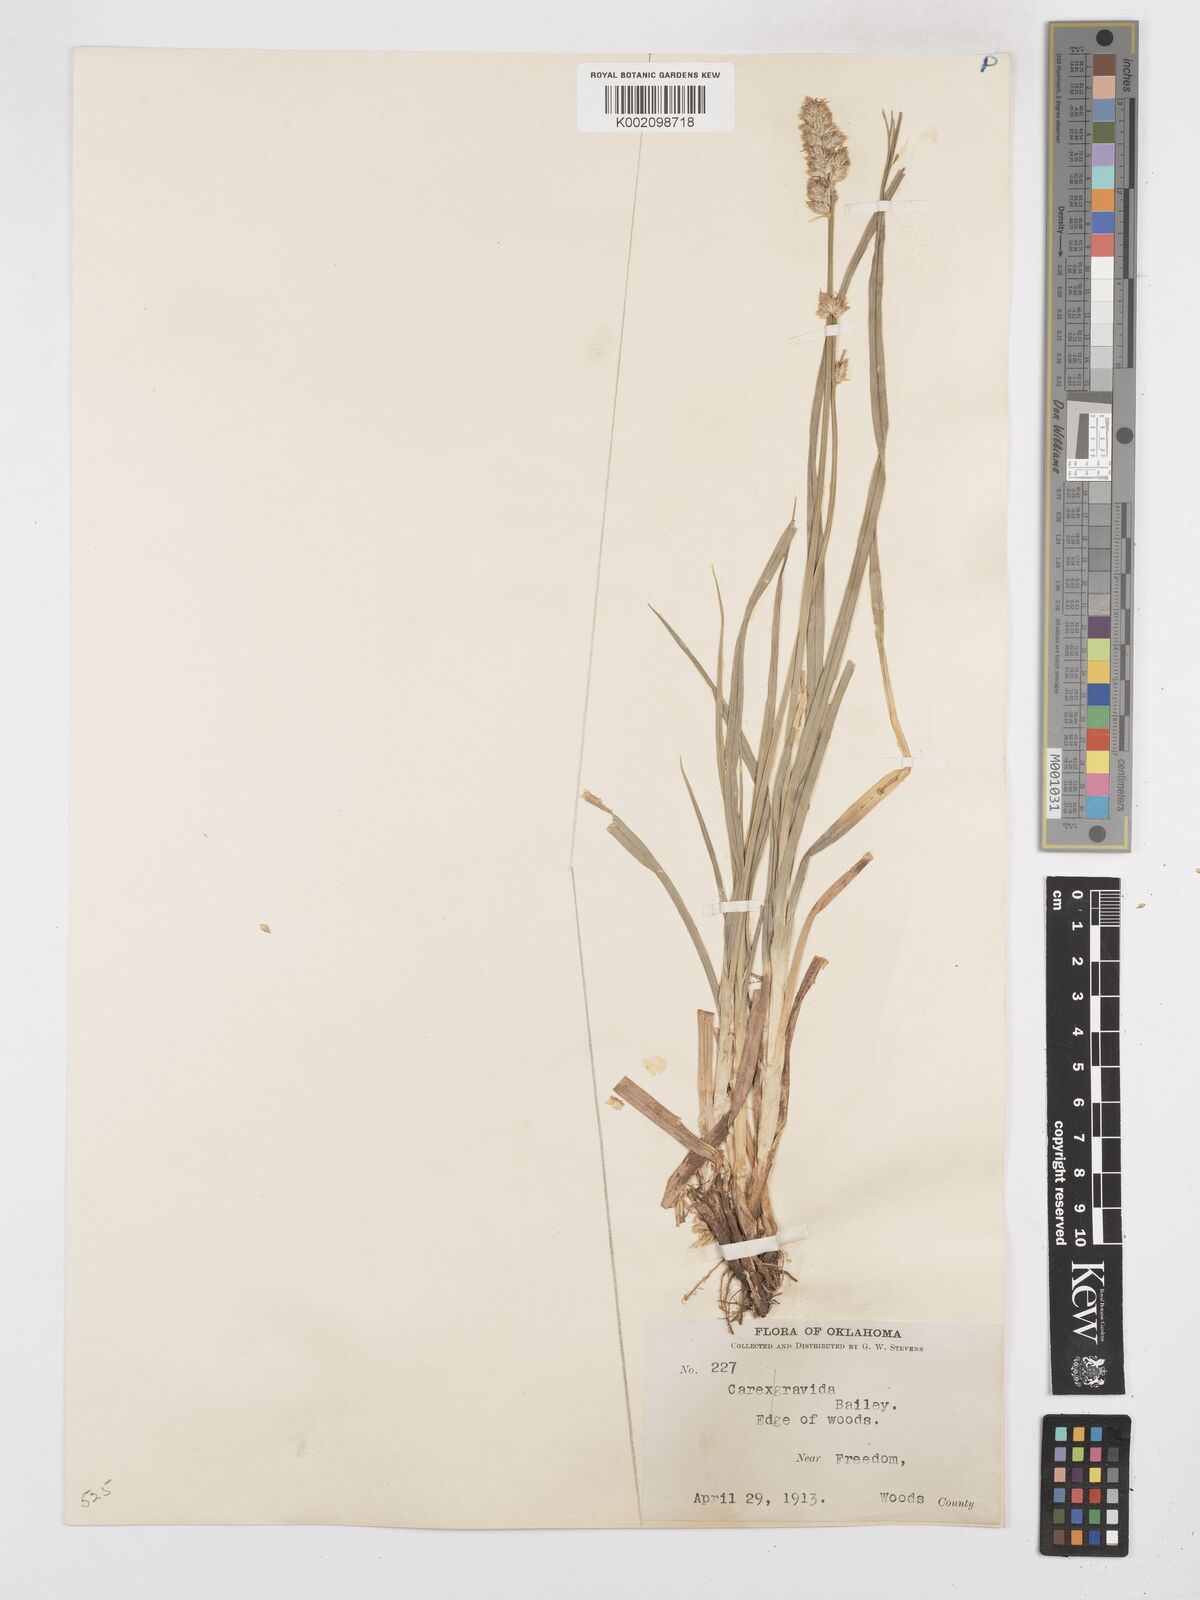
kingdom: Plantae
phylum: Tracheophyta
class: Liliopsida
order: Poales
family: Cyperaceae
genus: Carex
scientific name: Carex gravida
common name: Heavy sedge
